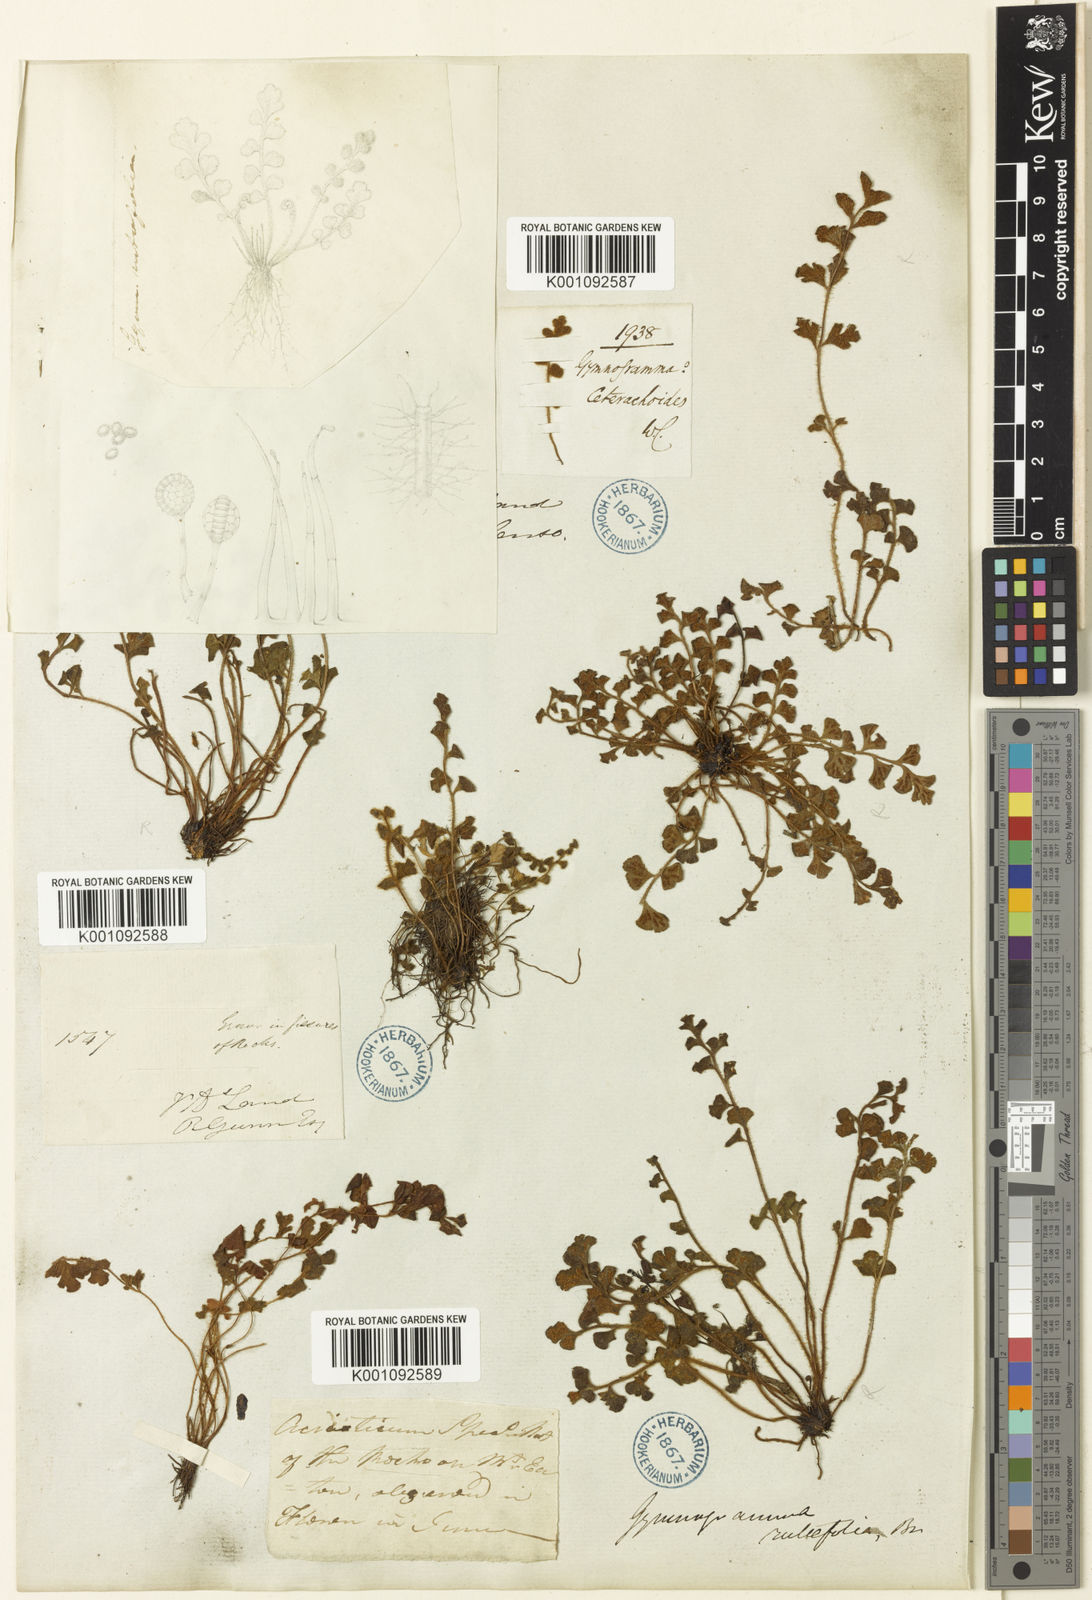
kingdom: Plantae
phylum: Tracheophyta
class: Polypodiopsida
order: Polypodiales
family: Aspleniaceae
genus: Asplenium
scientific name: Asplenium
